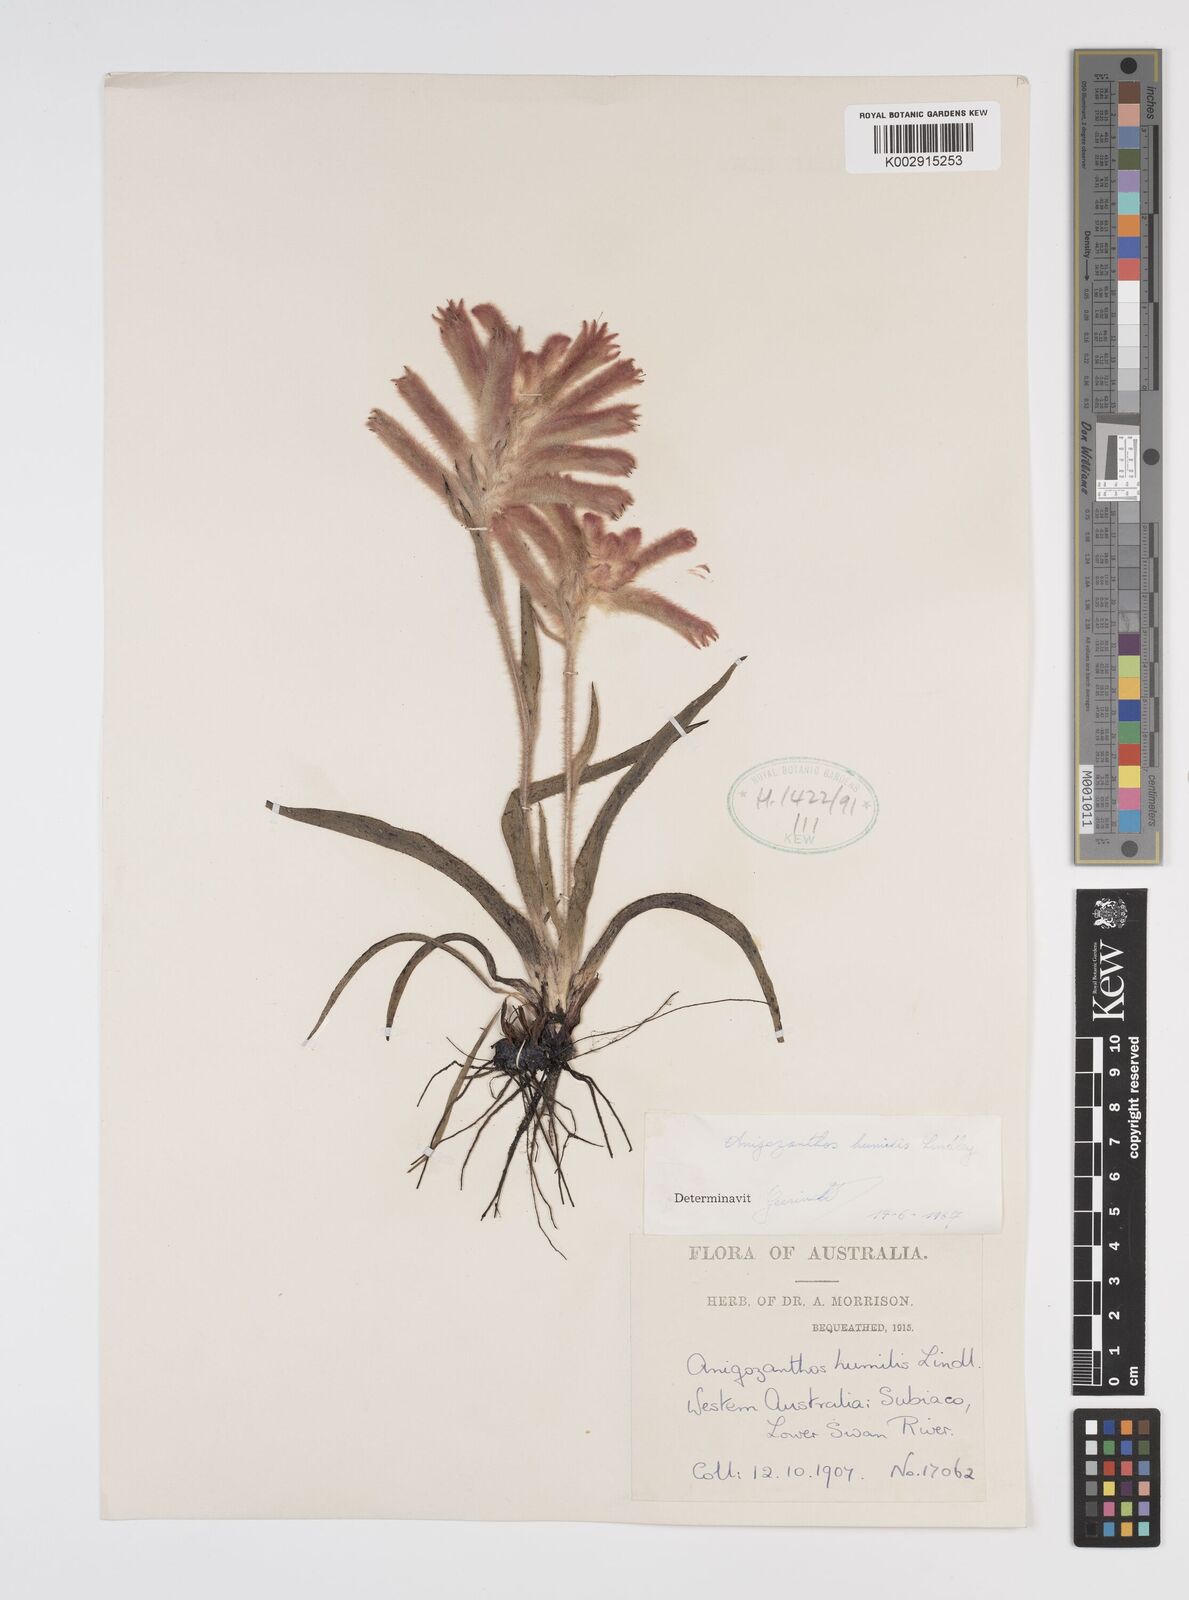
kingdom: Plantae
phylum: Tracheophyta
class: Liliopsida
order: Commelinales
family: Haemodoraceae
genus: Anigozanthos
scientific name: Anigozanthos humilis
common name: Cat's-paw
